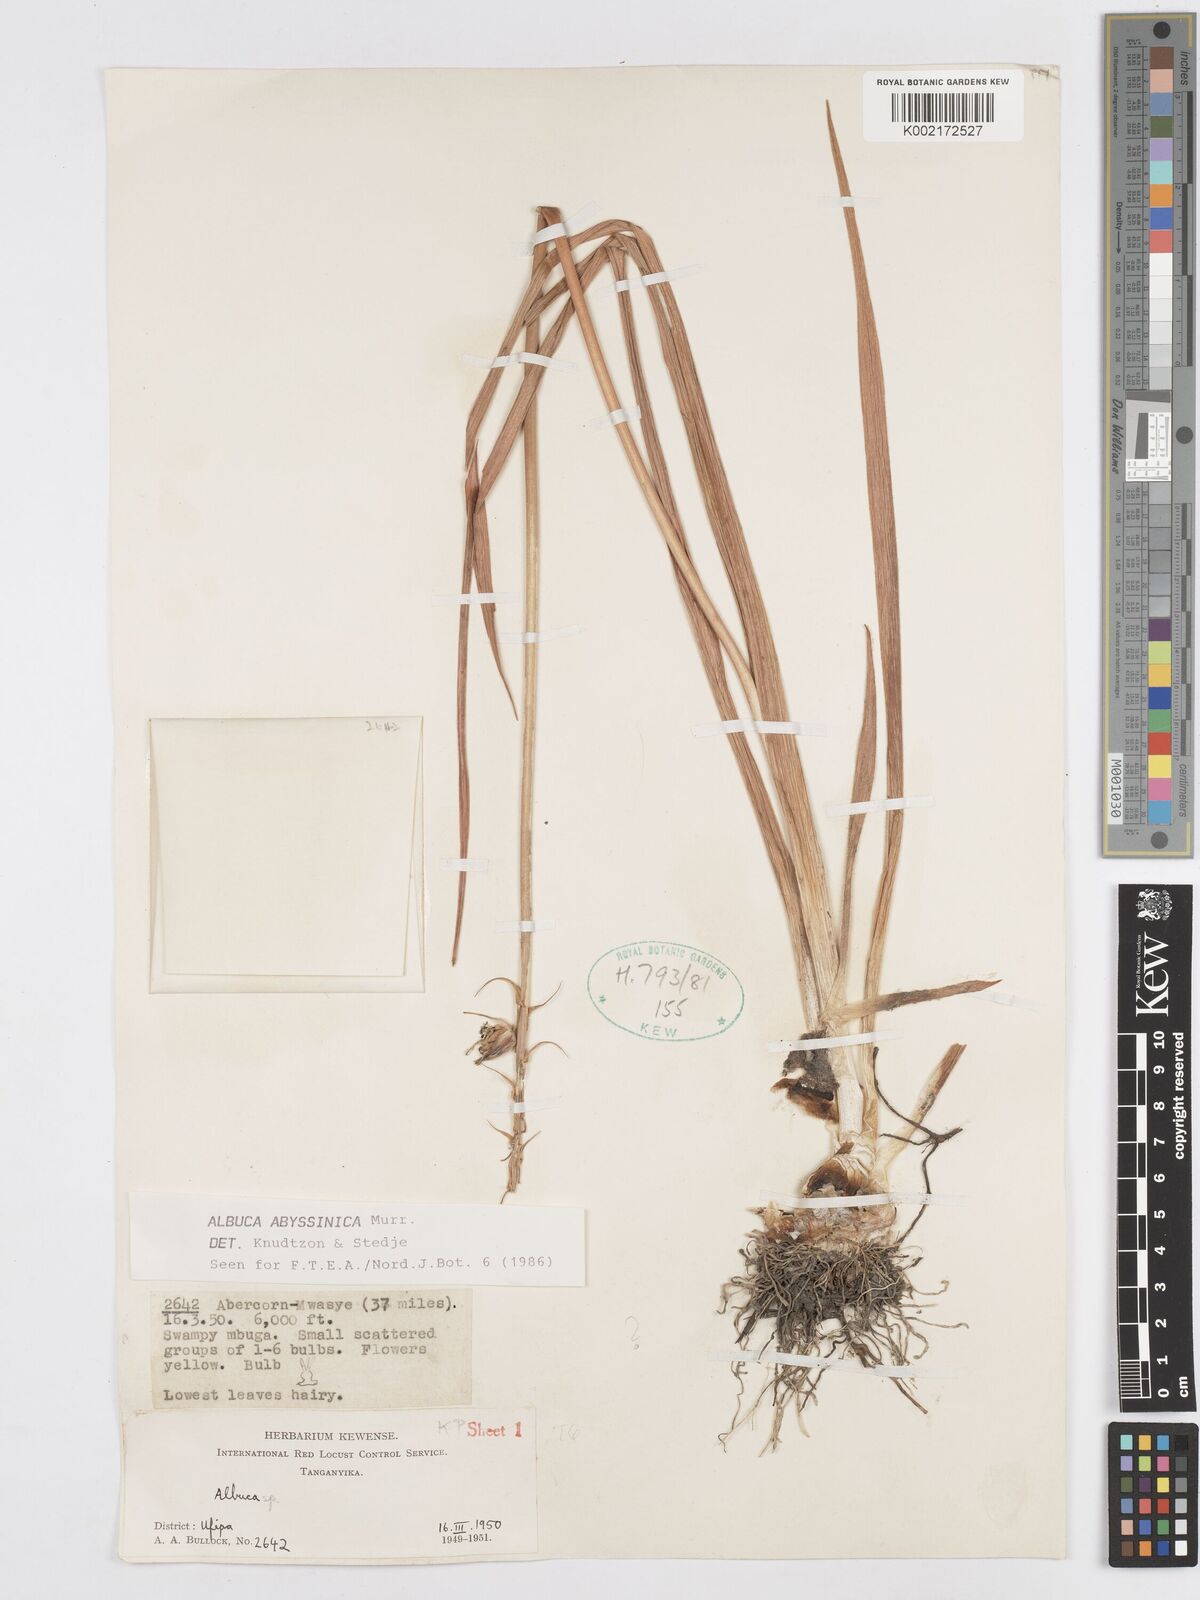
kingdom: Plantae
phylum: Tracheophyta
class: Liliopsida
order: Asparagales
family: Asparagaceae
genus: Albuca
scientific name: Albuca abyssinica
